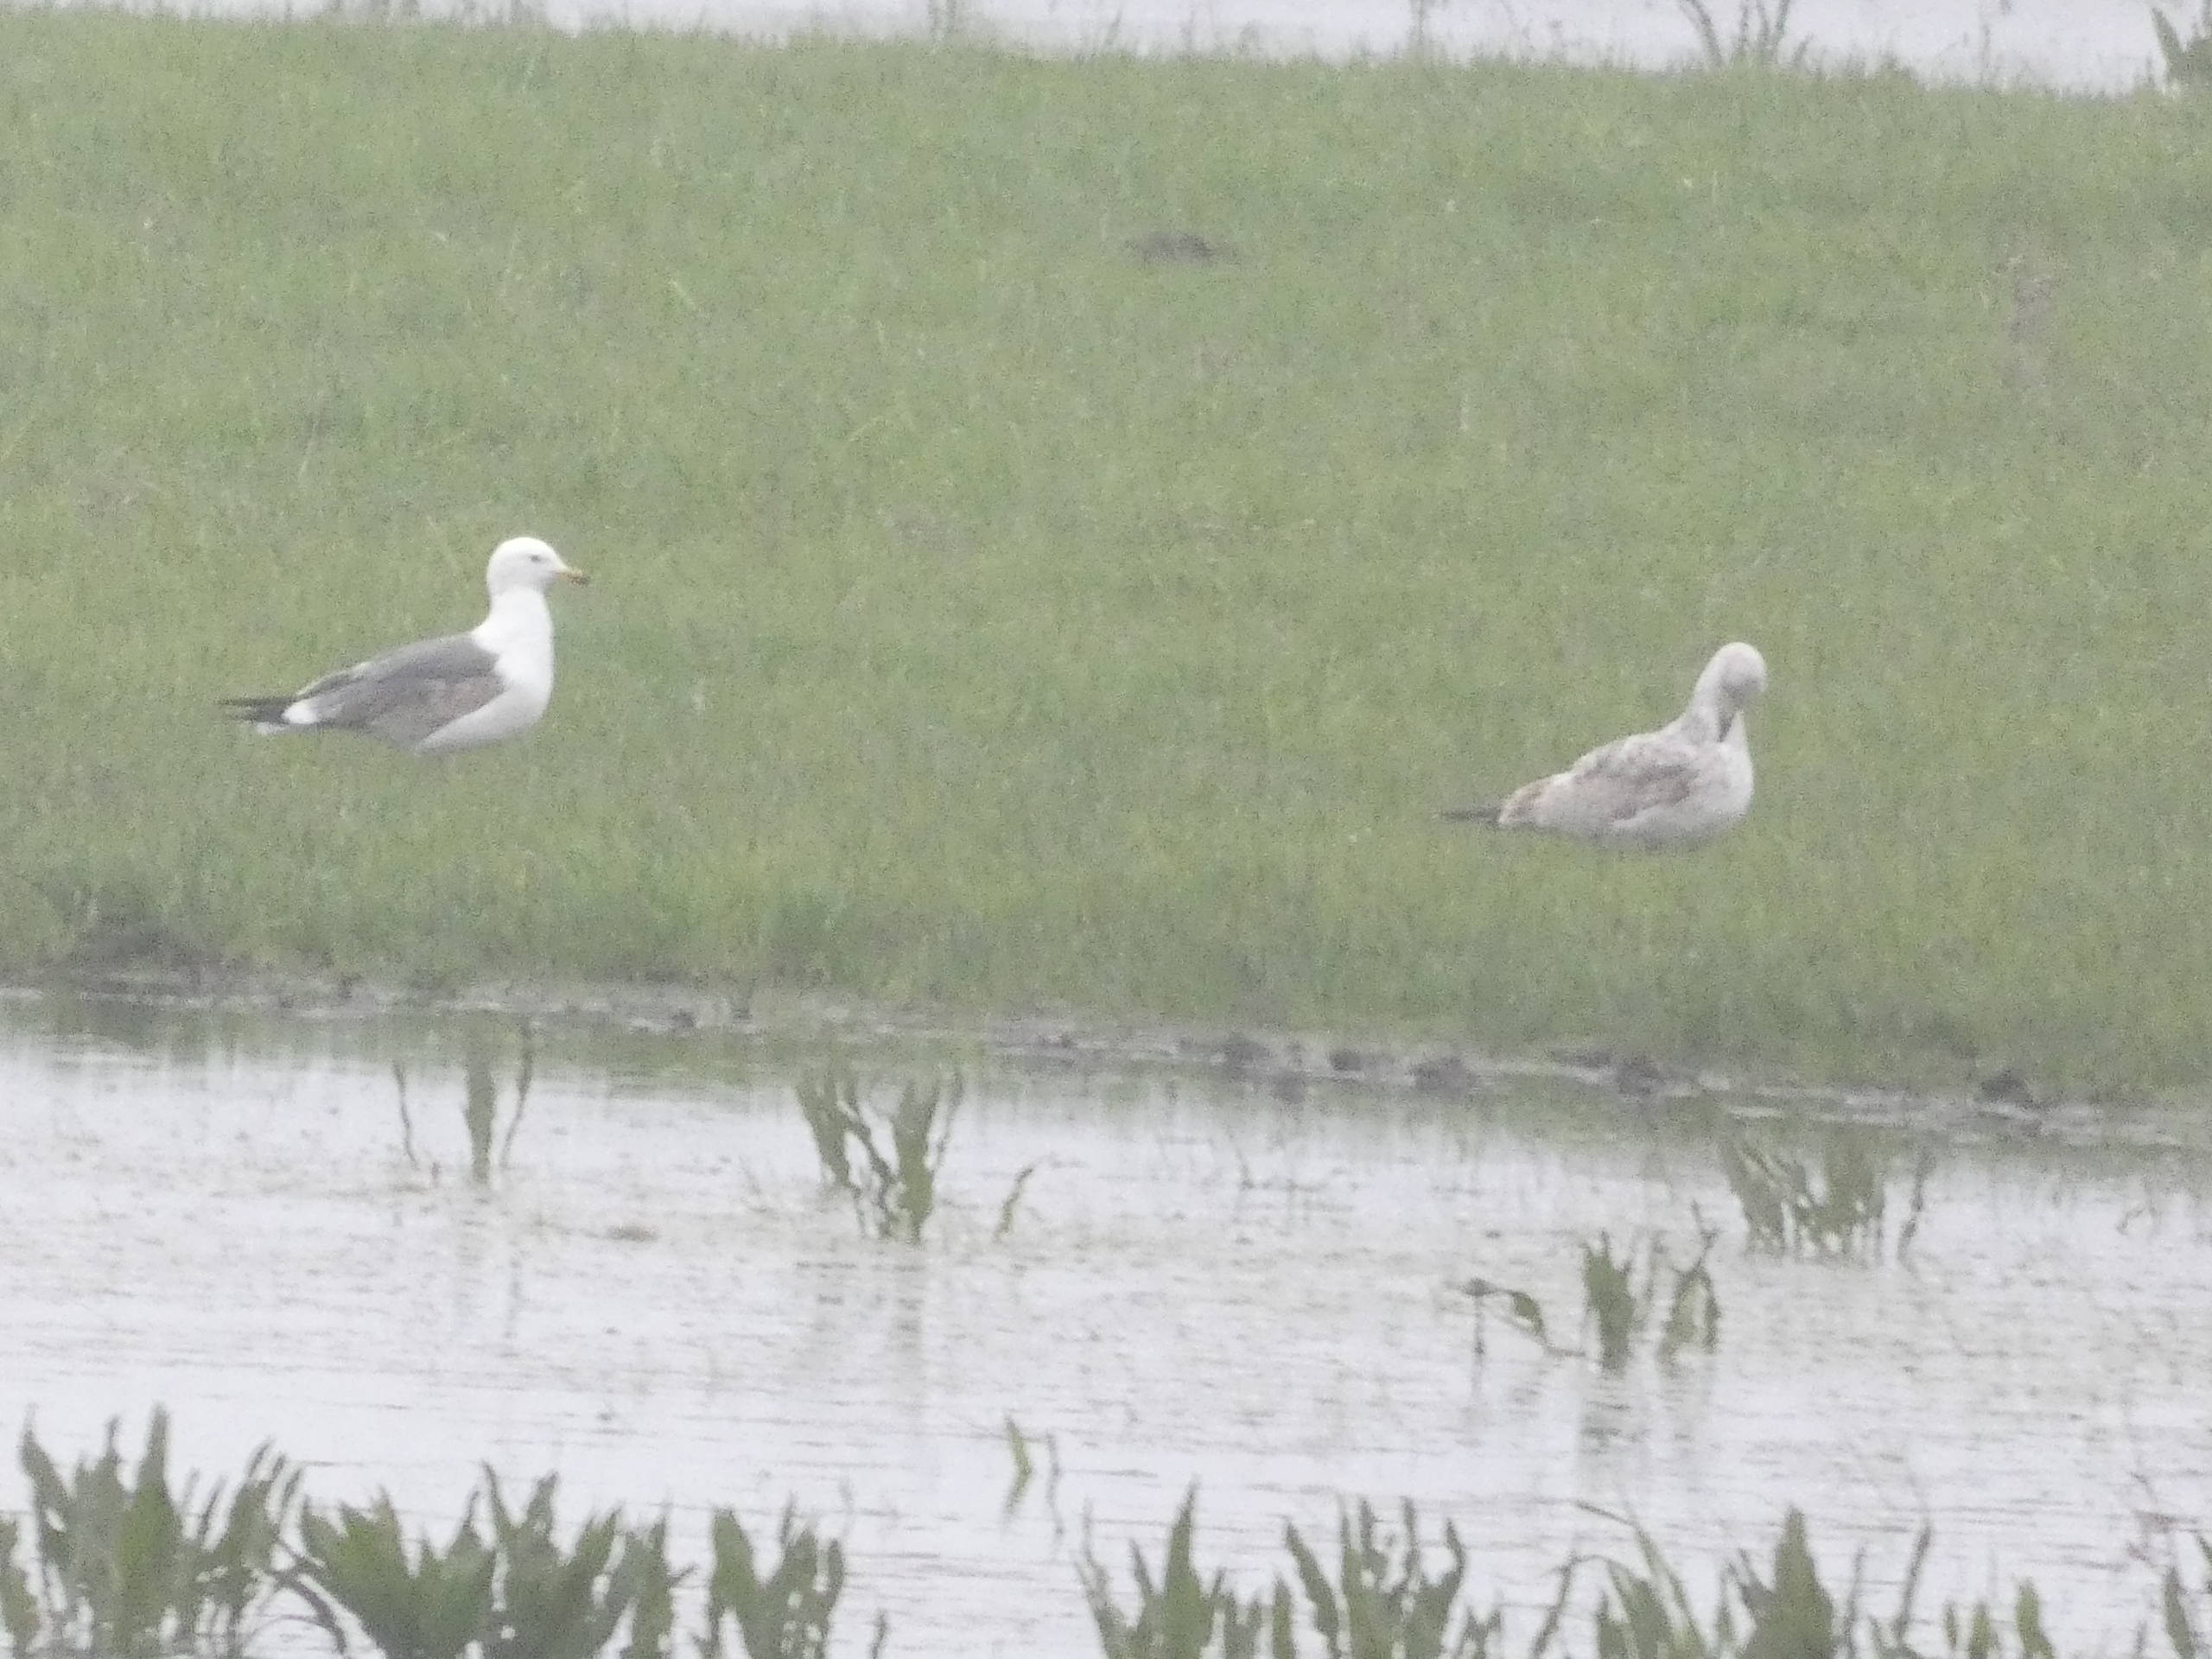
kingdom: Animalia
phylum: Chordata
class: Aves
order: Charadriiformes
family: Laridae
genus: Larus
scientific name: Larus argentatus
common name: Sølvmåge
